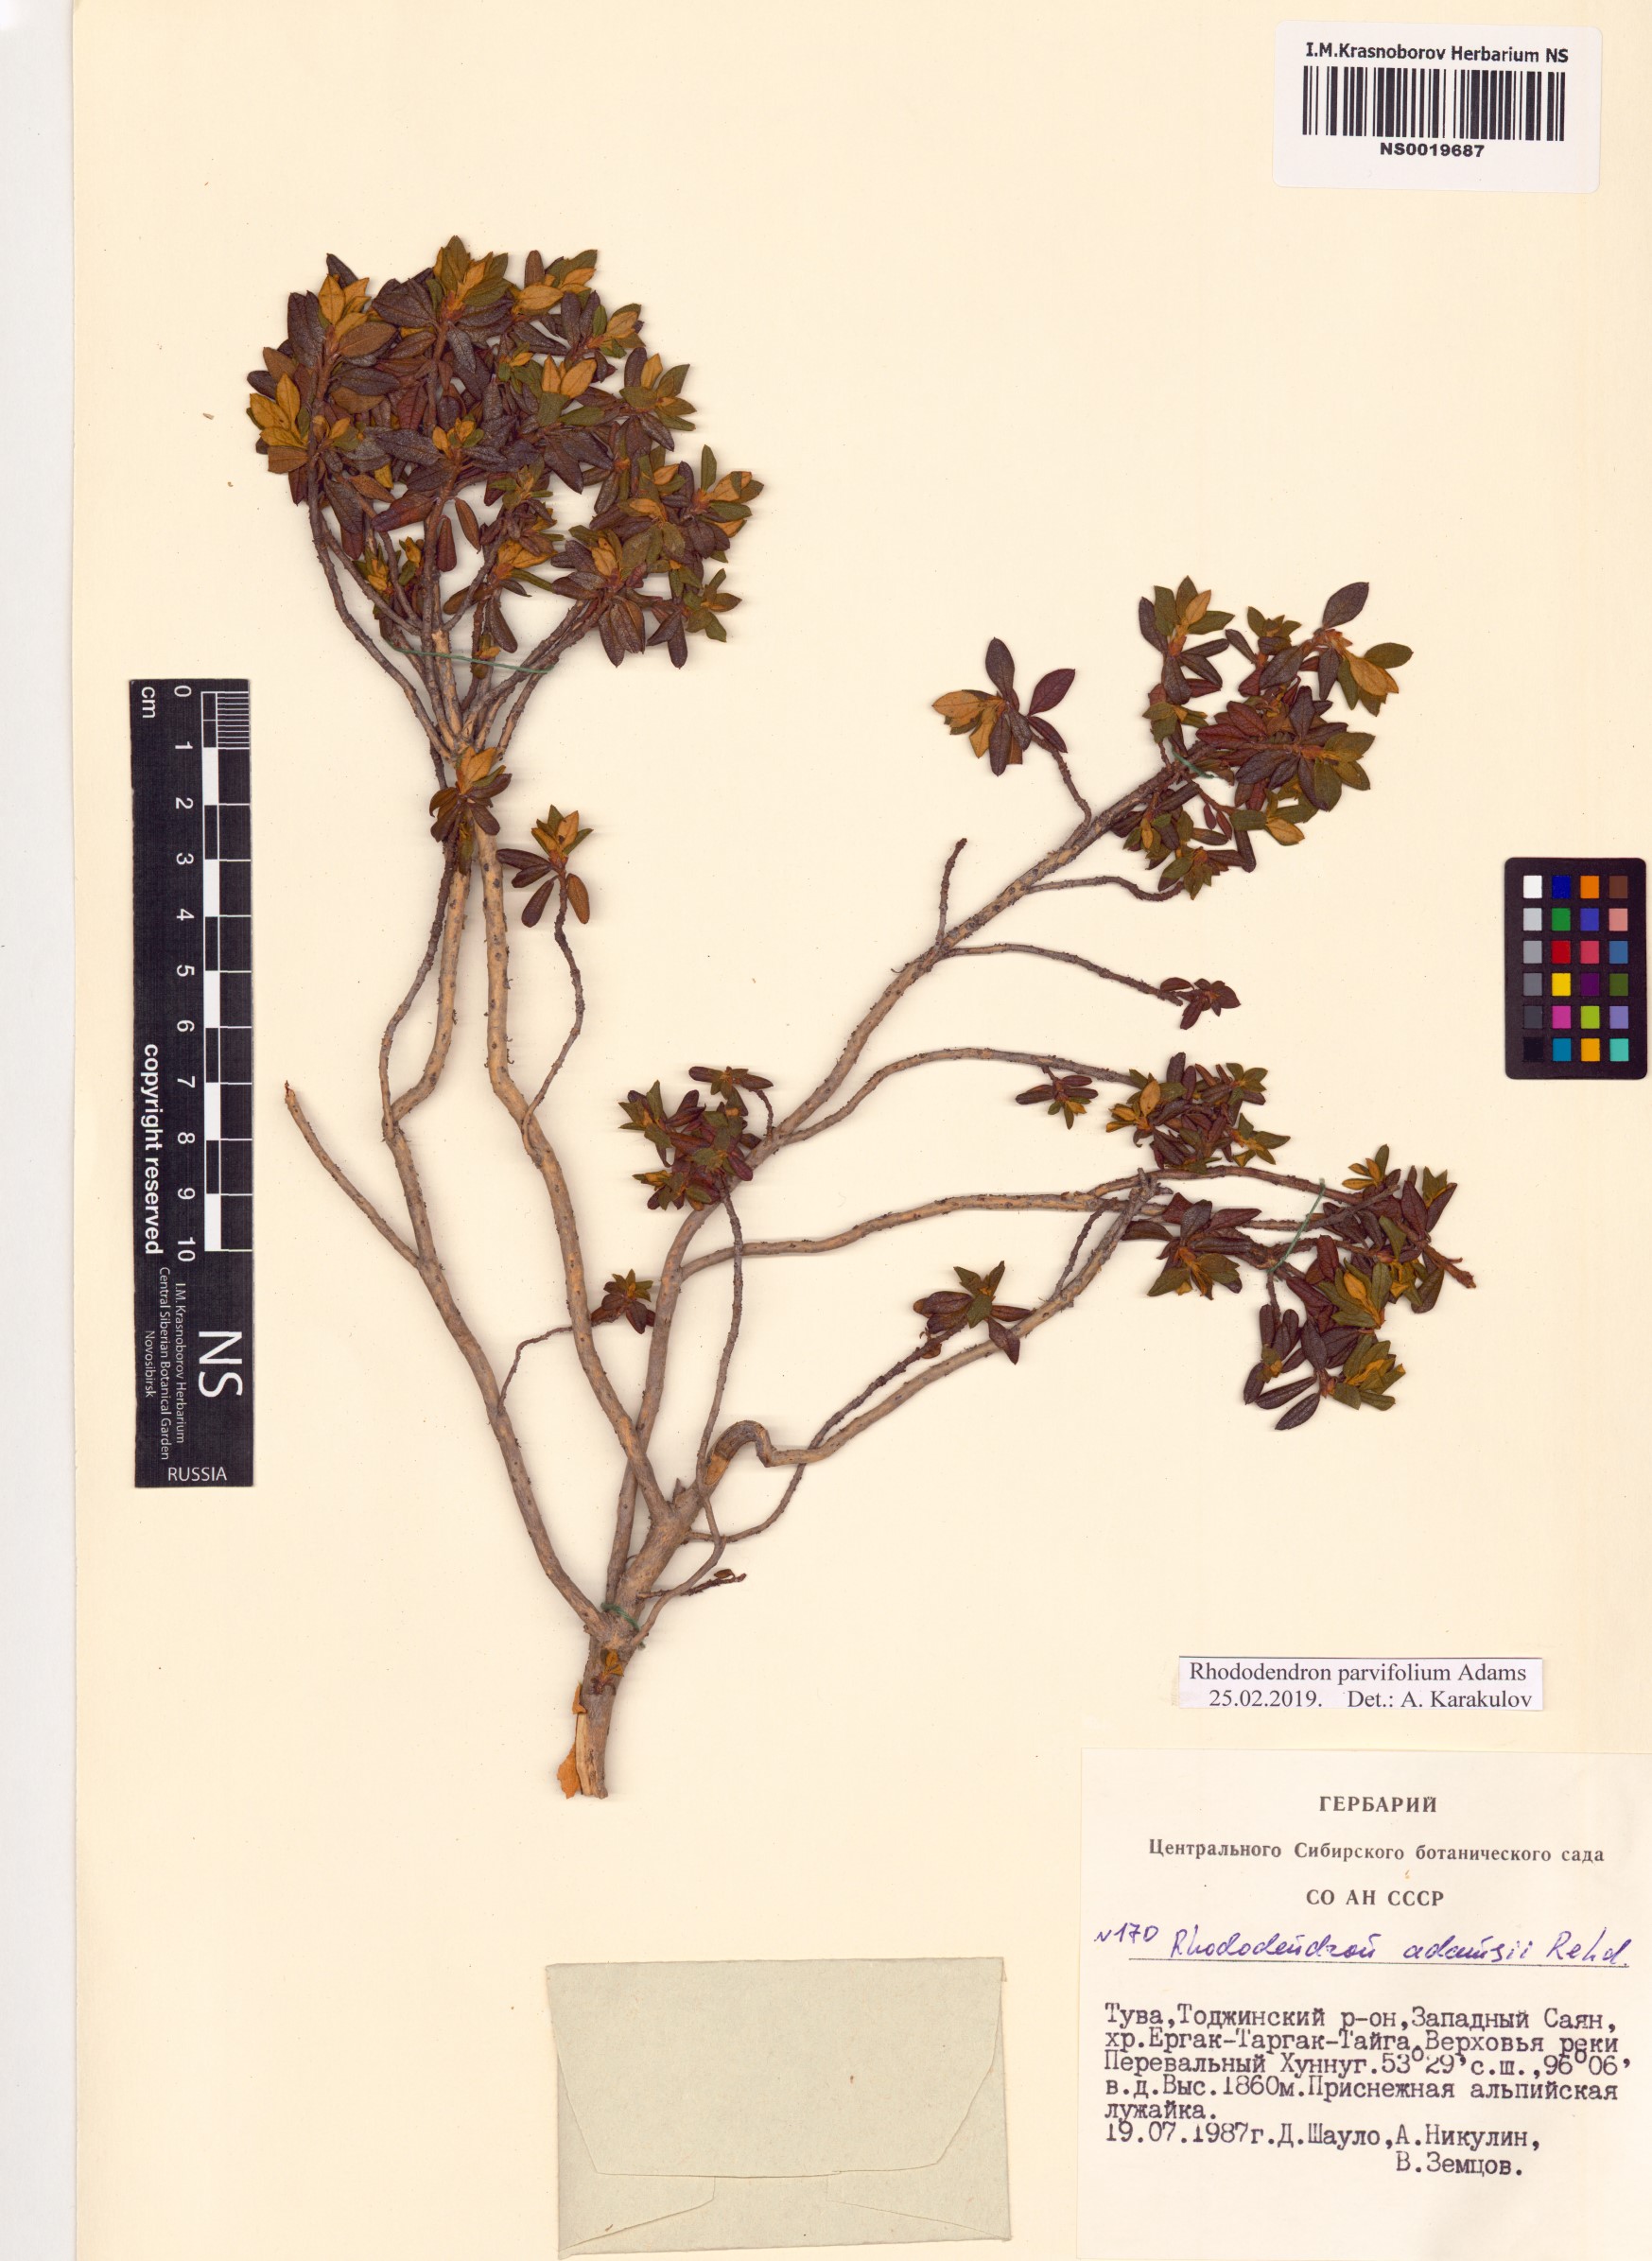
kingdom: Plantae
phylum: Tracheophyta
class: Magnoliopsida
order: Ericales
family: Ericaceae
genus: Rhododendron
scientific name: Rhododendron parvifolium
